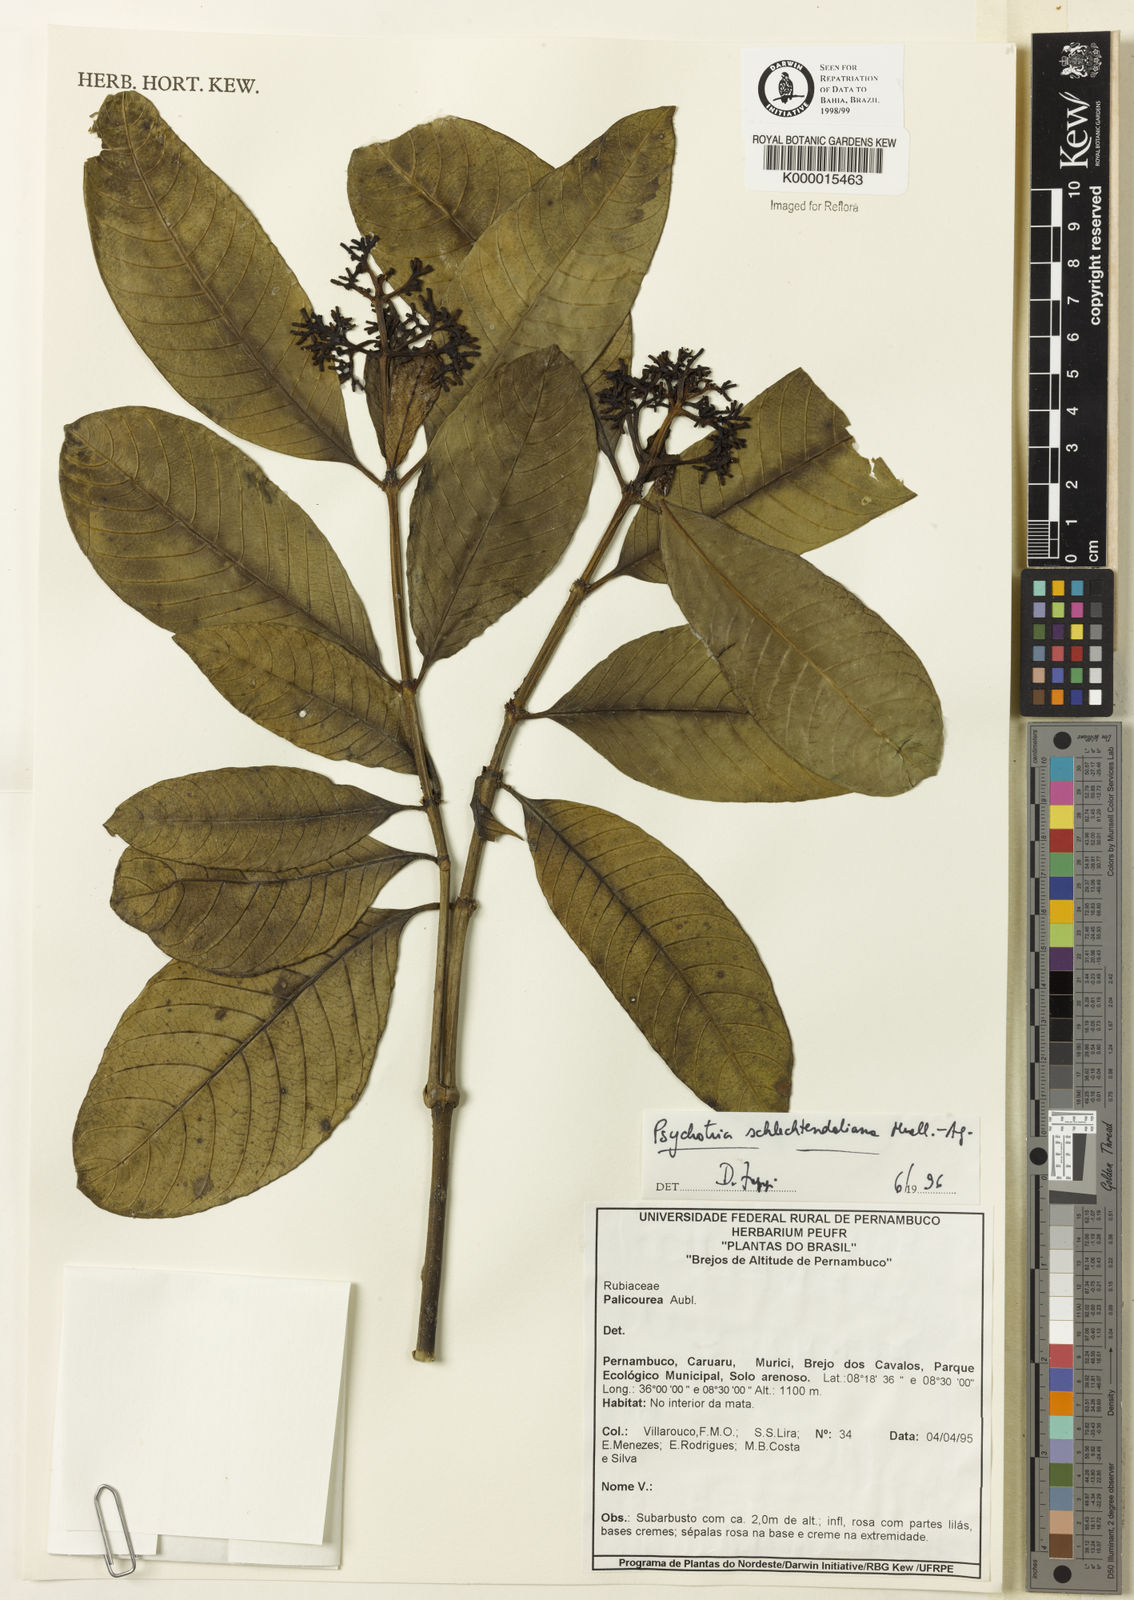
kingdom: Plantae
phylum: Tracheophyta
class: Magnoliopsida
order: Gentianales
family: Rubiaceae
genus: Palicourea
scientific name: Palicourea divaricata
